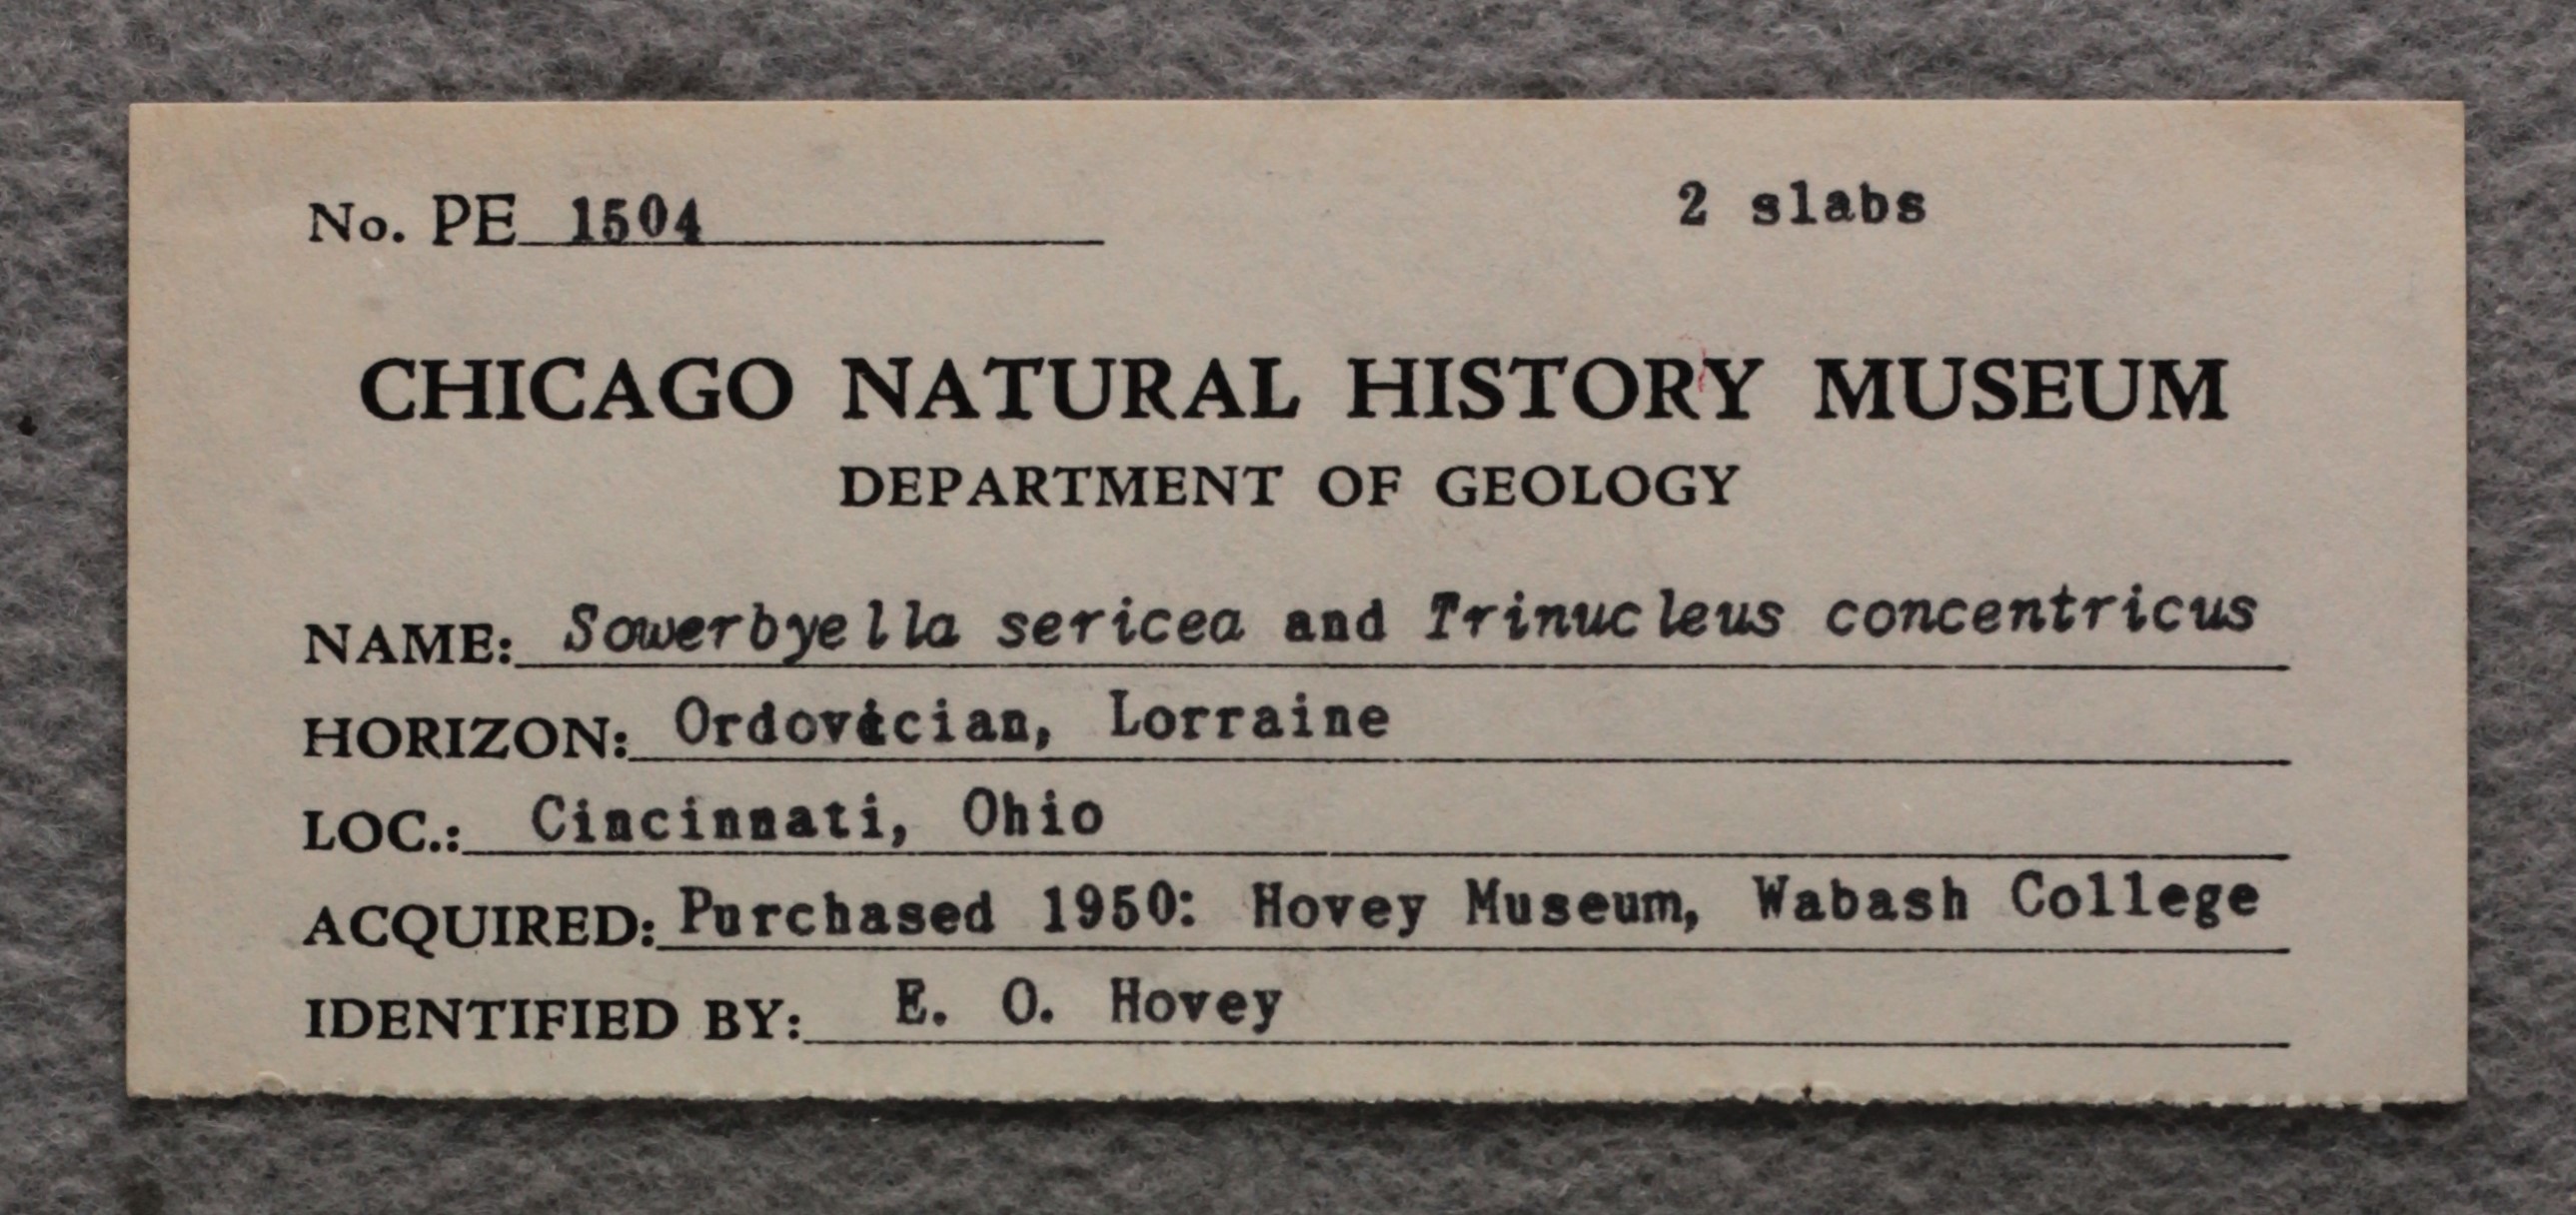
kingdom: Animalia
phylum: Brachiopoda
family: Sowerbyellidae
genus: Sowerbyella
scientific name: Sowerbyella Leptaena sericea
